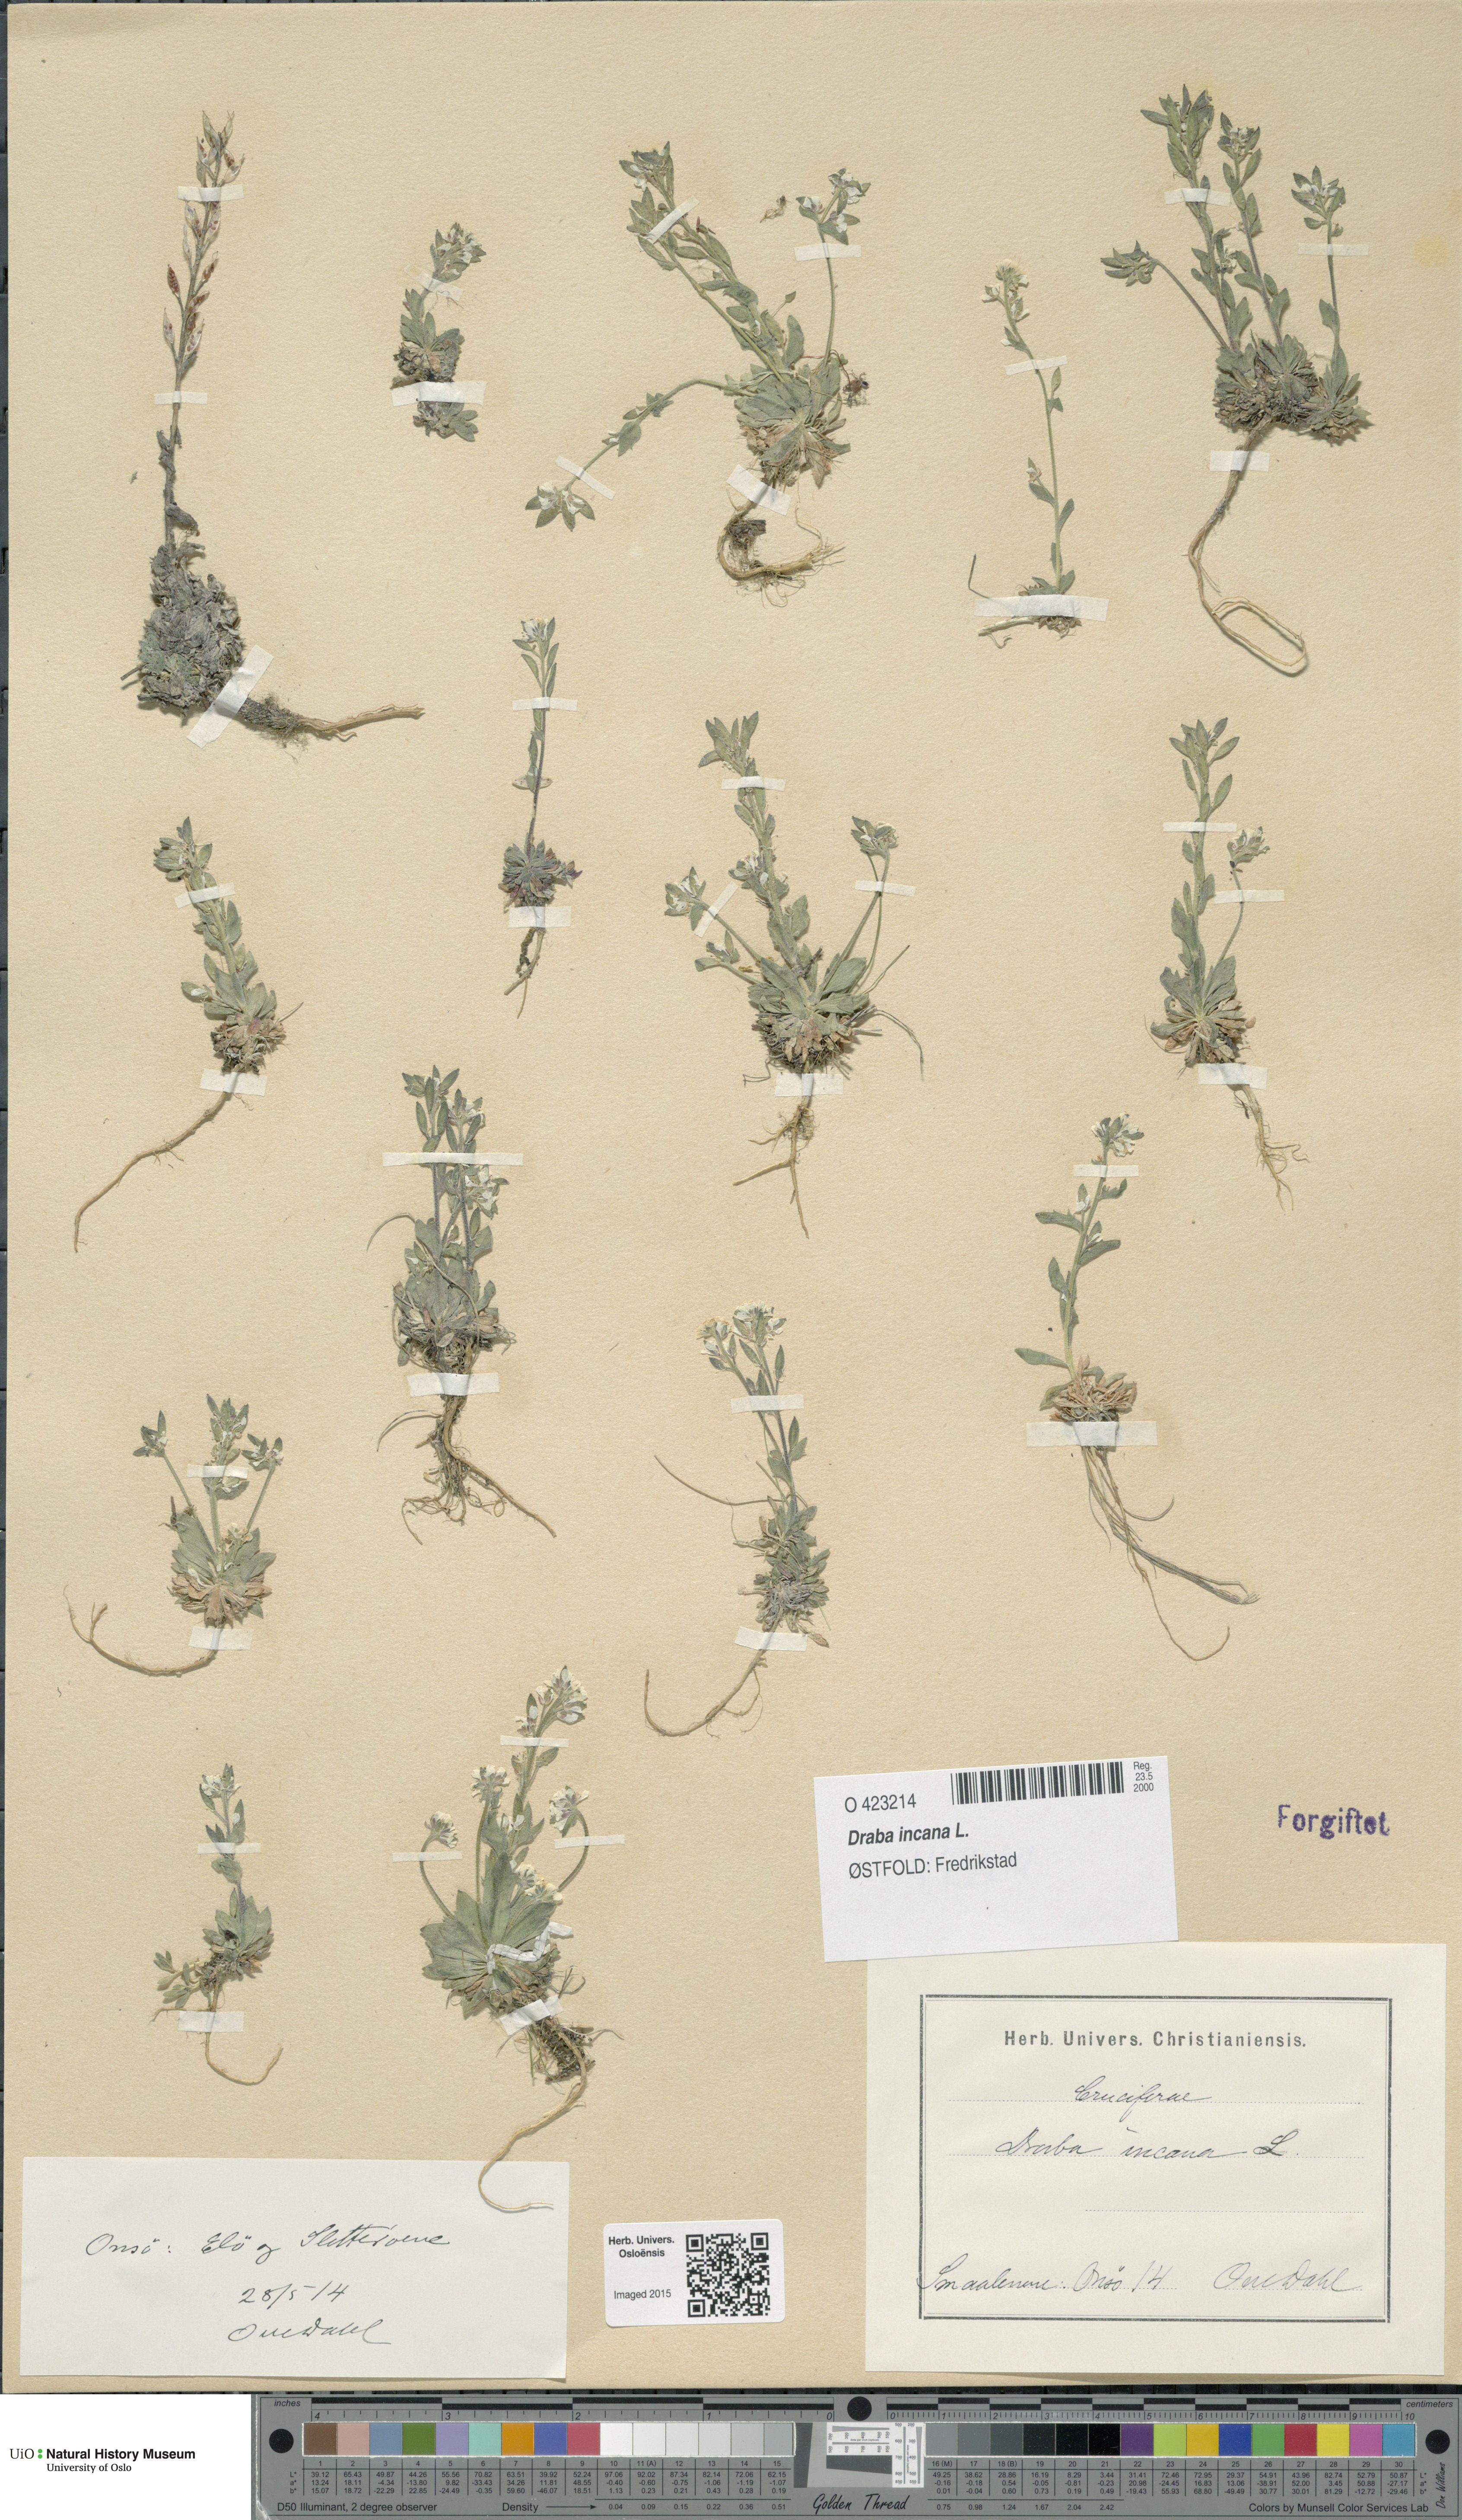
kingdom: Plantae
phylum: Tracheophyta
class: Magnoliopsida
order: Brassicales
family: Brassicaceae
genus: Draba
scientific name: Draba incana
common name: Hoary whitlow-grass
